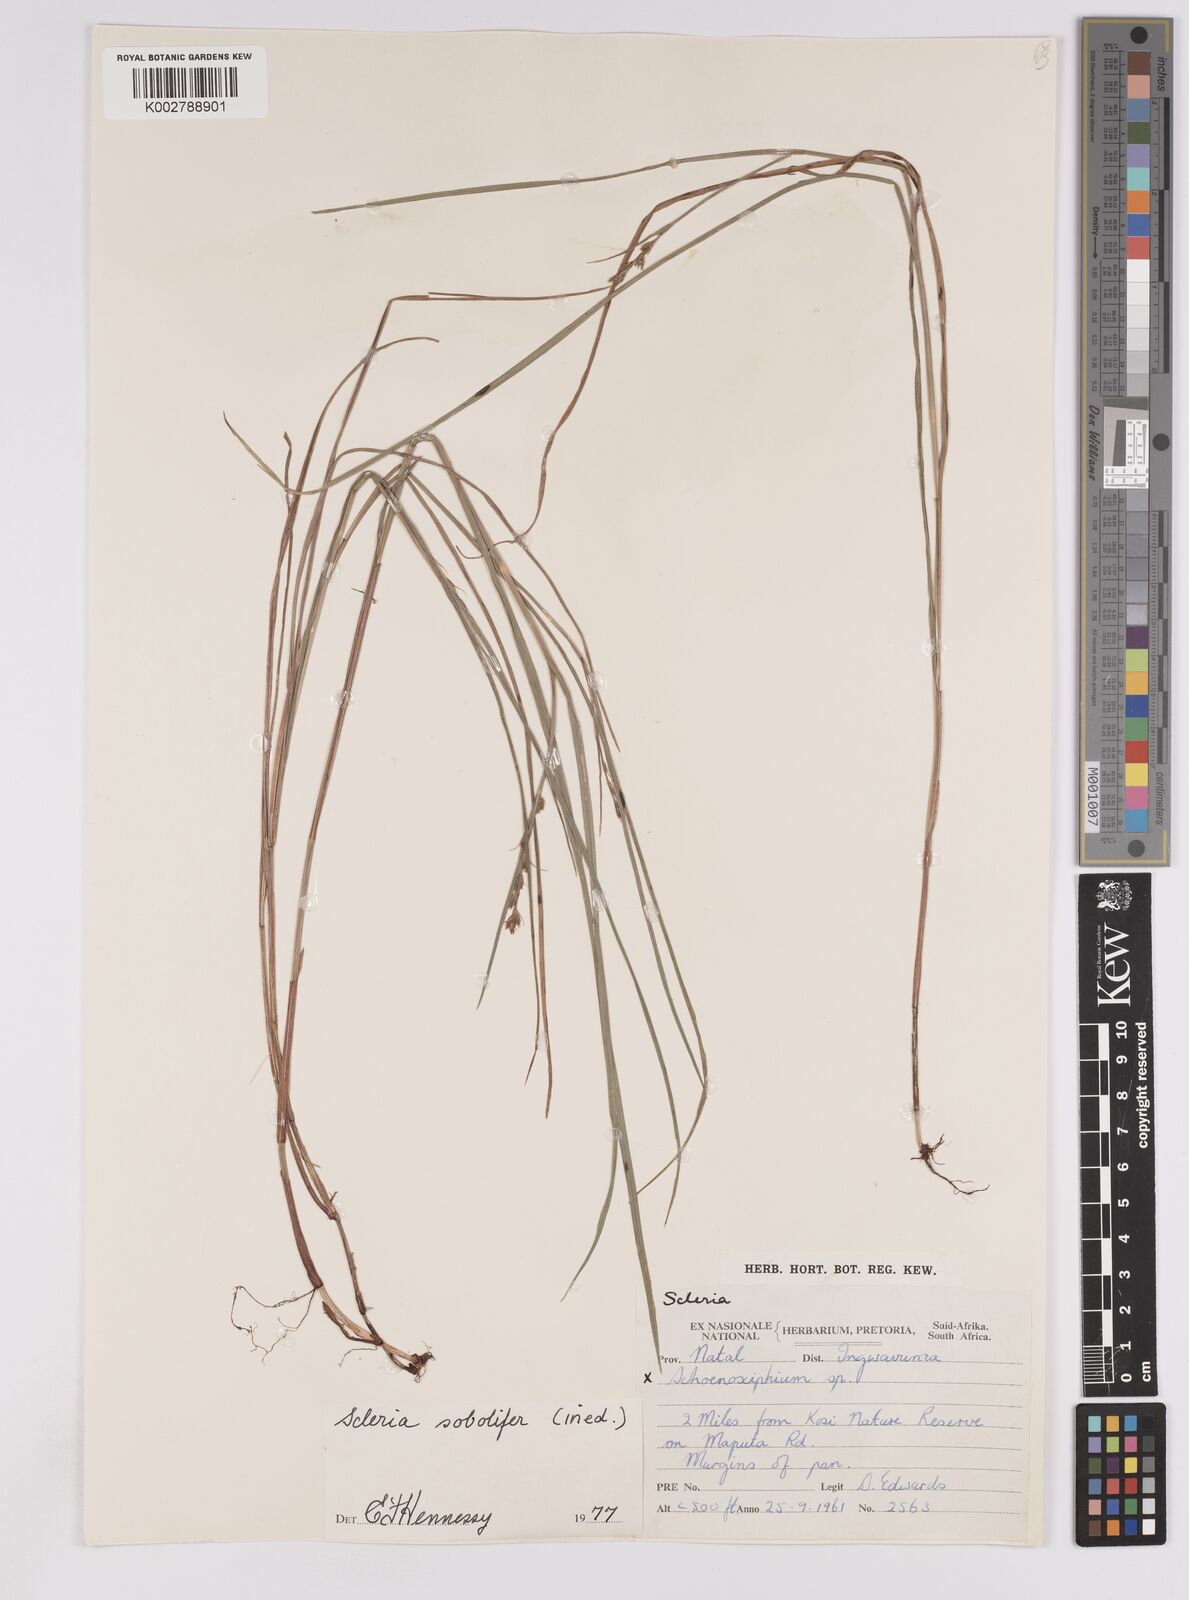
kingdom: Plantae
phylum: Tracheophyta
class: Liliopsida
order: Poales
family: Cyperaceae
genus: Scleria
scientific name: Scleria sobolifera
